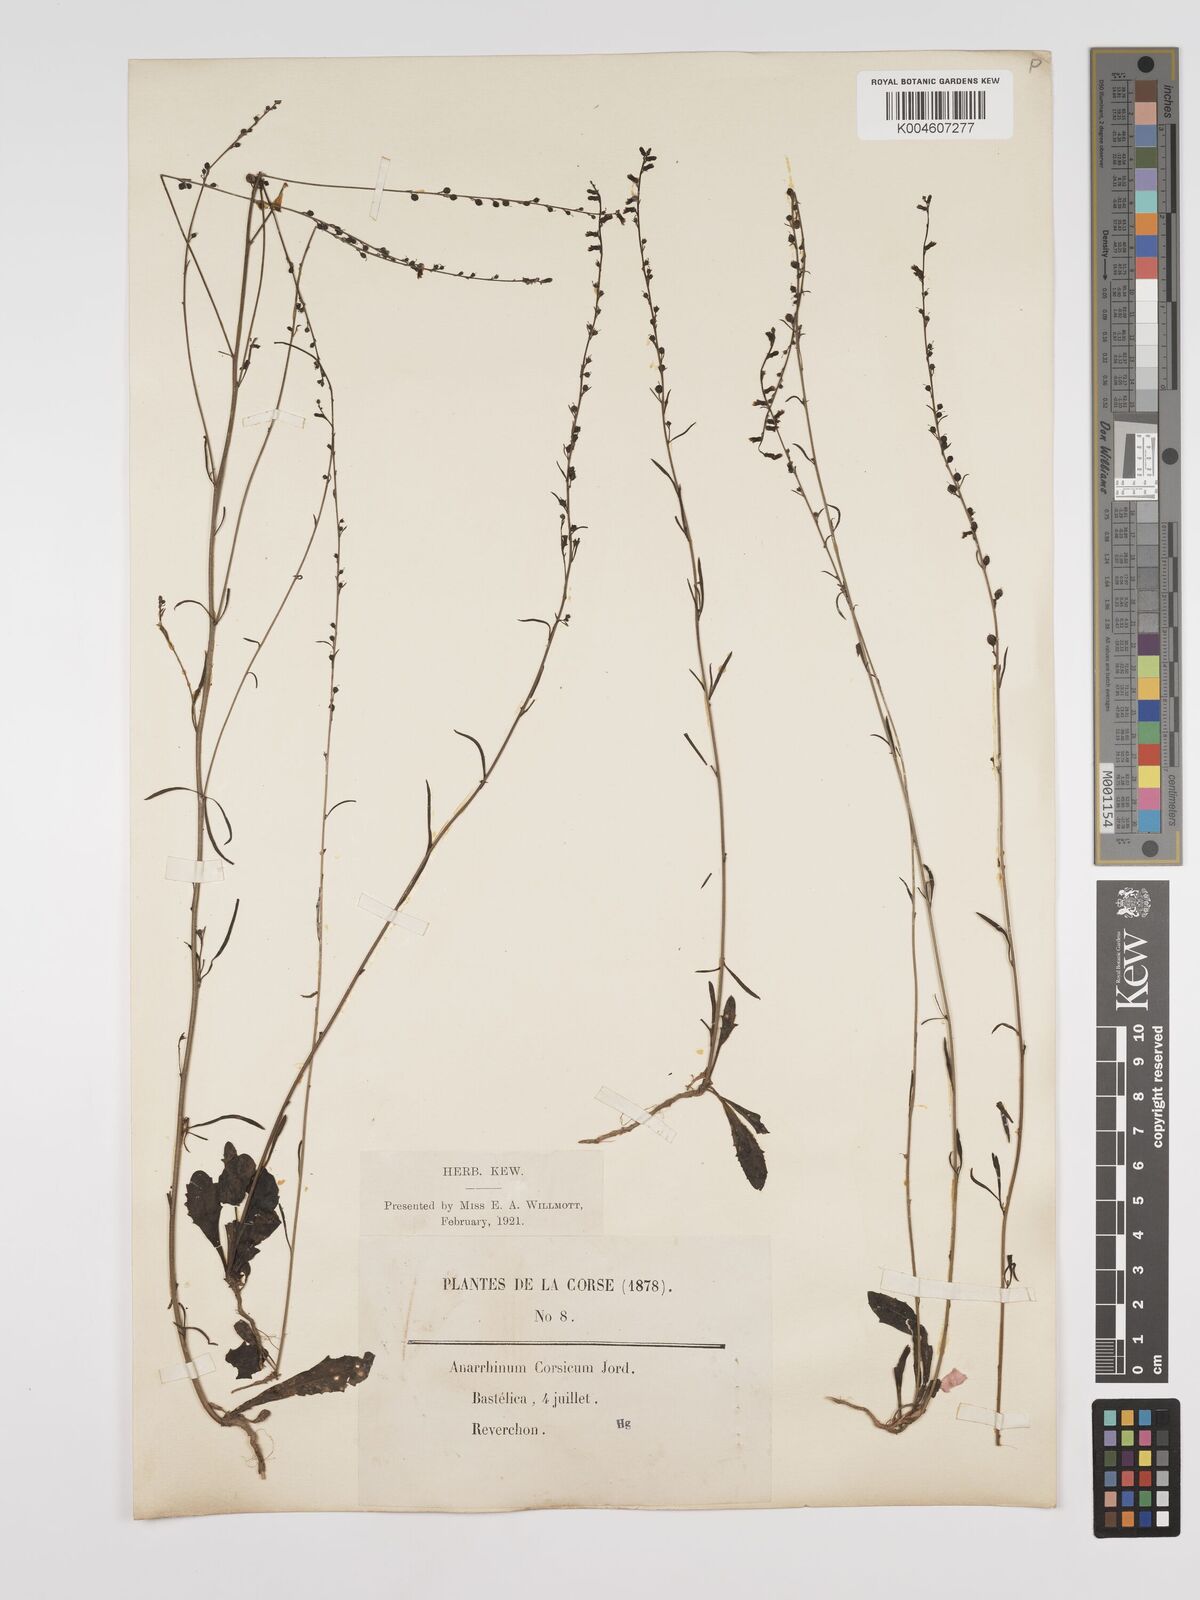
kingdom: Plantae
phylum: Tracheophyta
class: Magnoliopsida
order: Lamiales
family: Plantaginaceae
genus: Anarrhinum
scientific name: Anarrhinum corsicum
